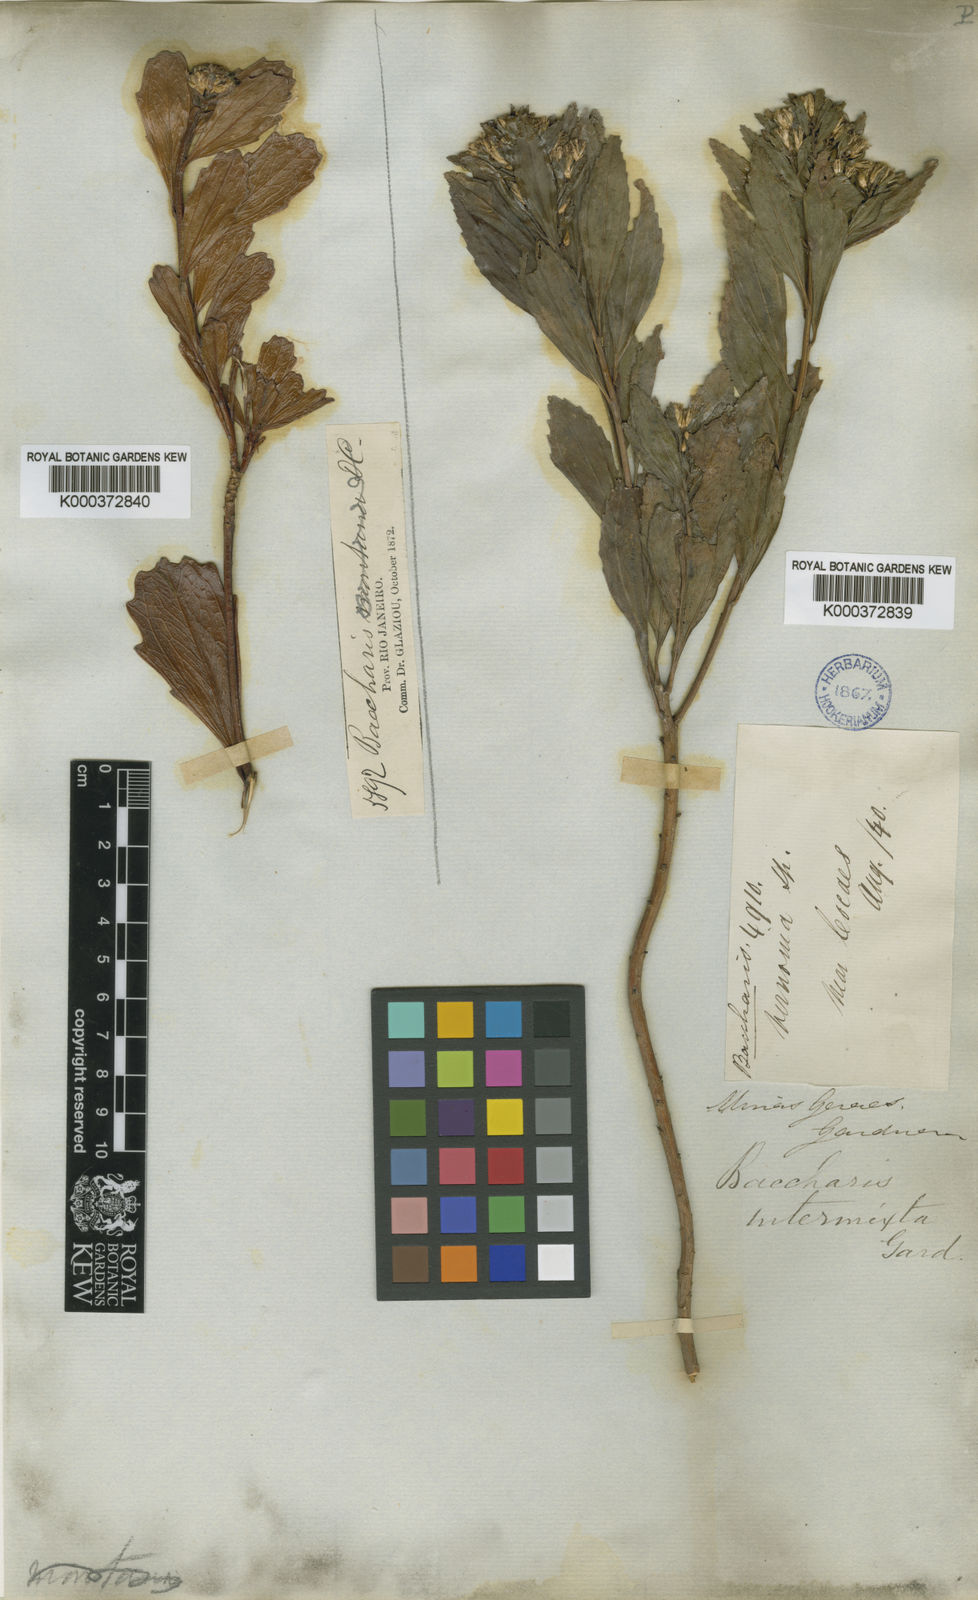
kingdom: Plantae
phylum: Tracheophyta
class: Magnoliopsida
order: Asterales
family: Asteraceae
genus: Baccharis
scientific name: Baccharis intermixta
